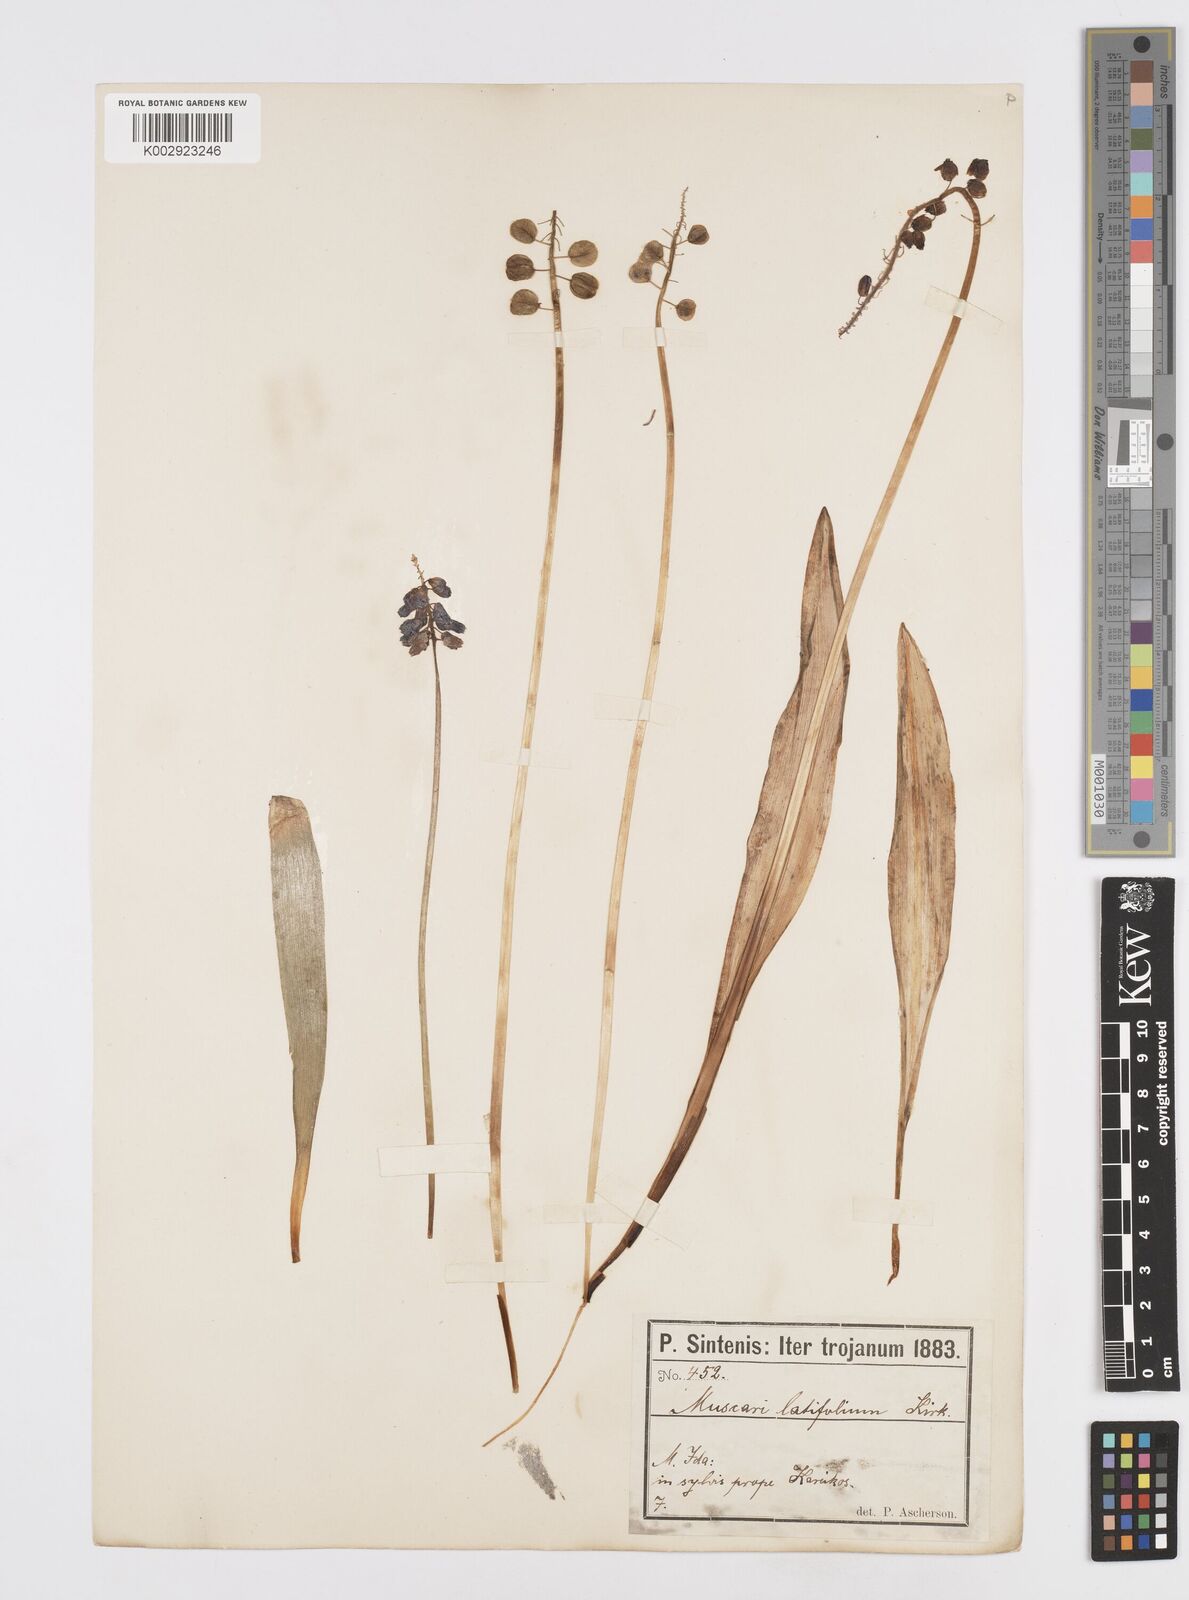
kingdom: Plantae
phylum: Tracheophyta
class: Liliopsida
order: Asparagales
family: Asparagaceae
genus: Muscari
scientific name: Muscari latifolium
